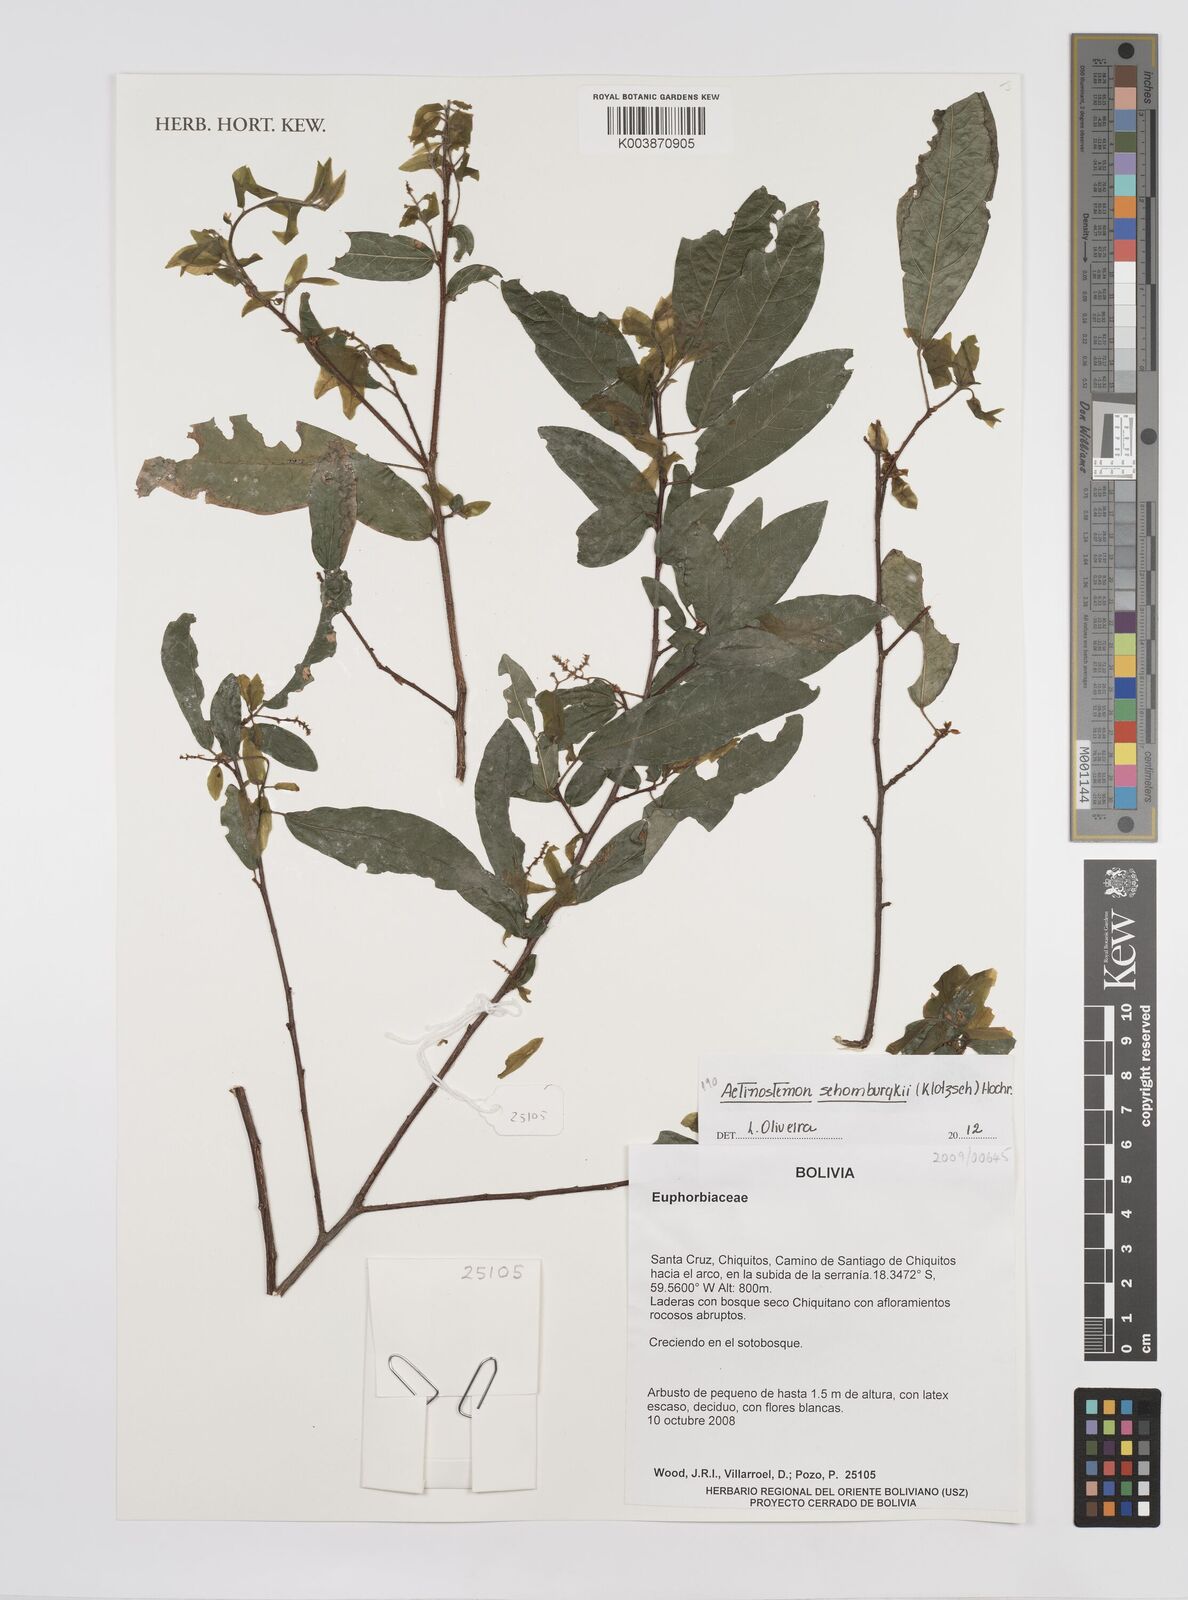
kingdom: Plantae
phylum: Tracheophyta
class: Magnoliopsida
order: Malpighiales
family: Euphorbiaceae
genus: Actinostemon
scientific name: Actinostemon schomburgkii
